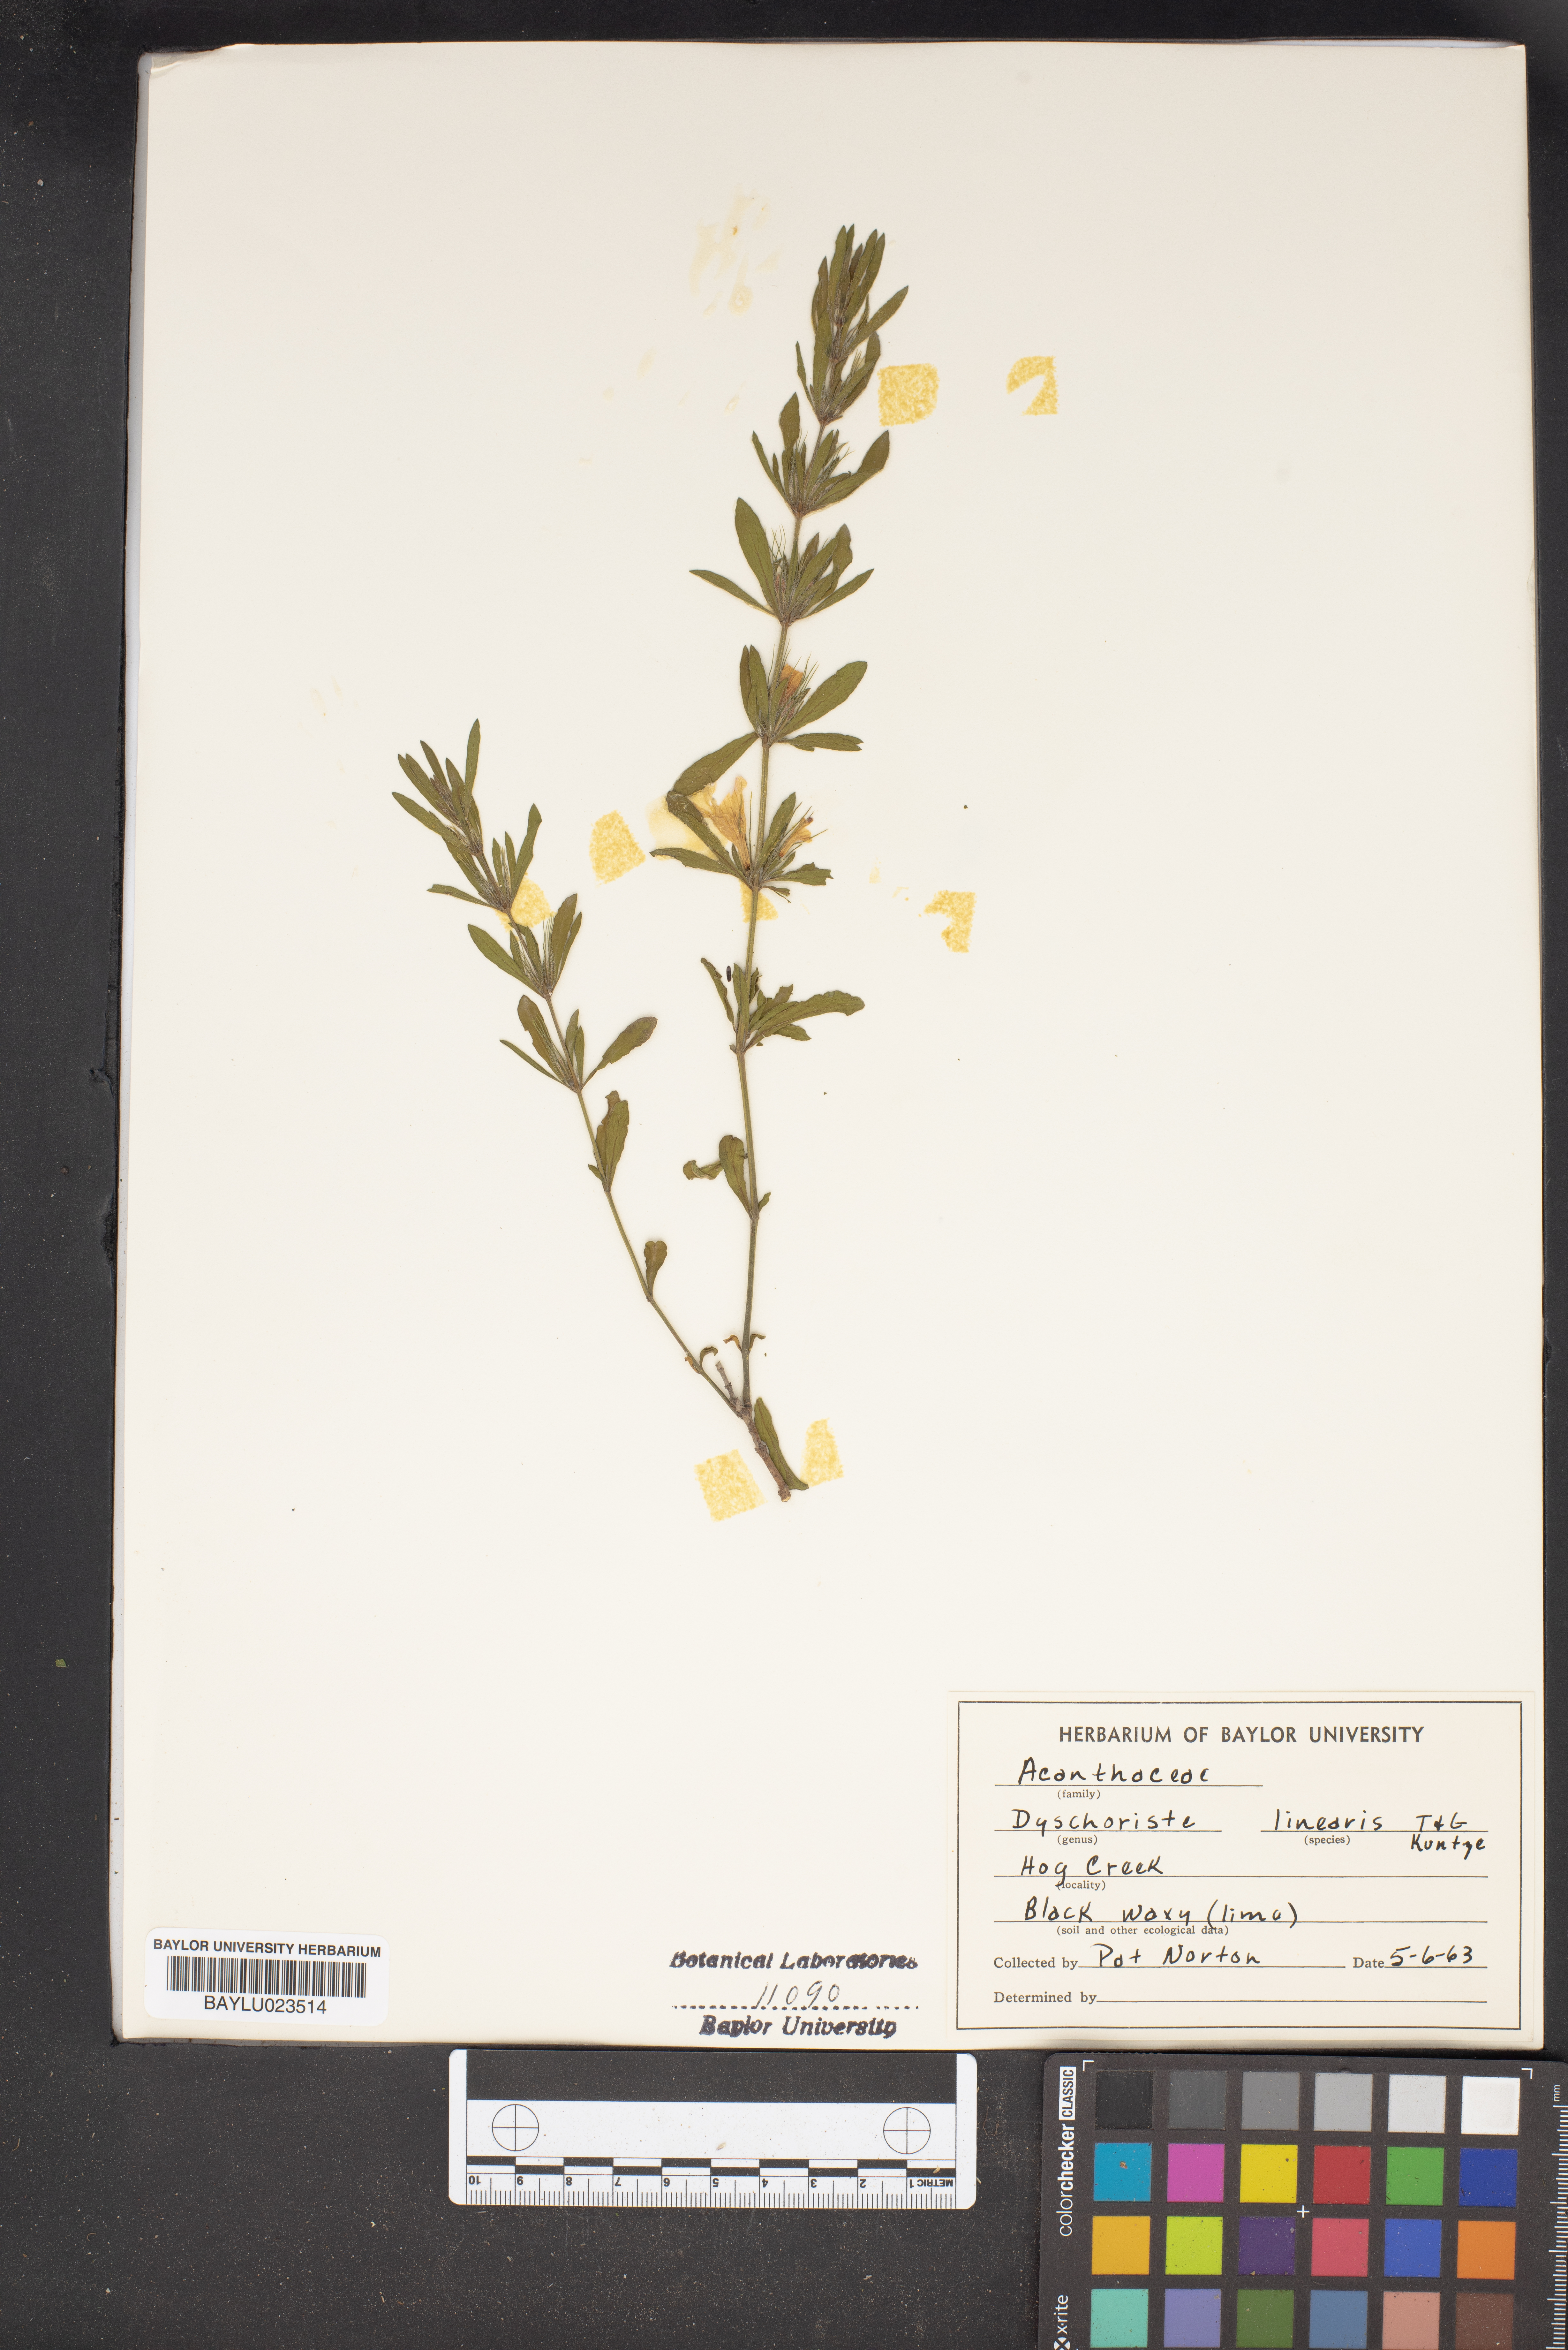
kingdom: Plantae
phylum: Tracheophyta
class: Magnoliopsida
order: Lamiales
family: Acanthaceae
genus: Dyschoriste
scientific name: Dyschoriste linearis
